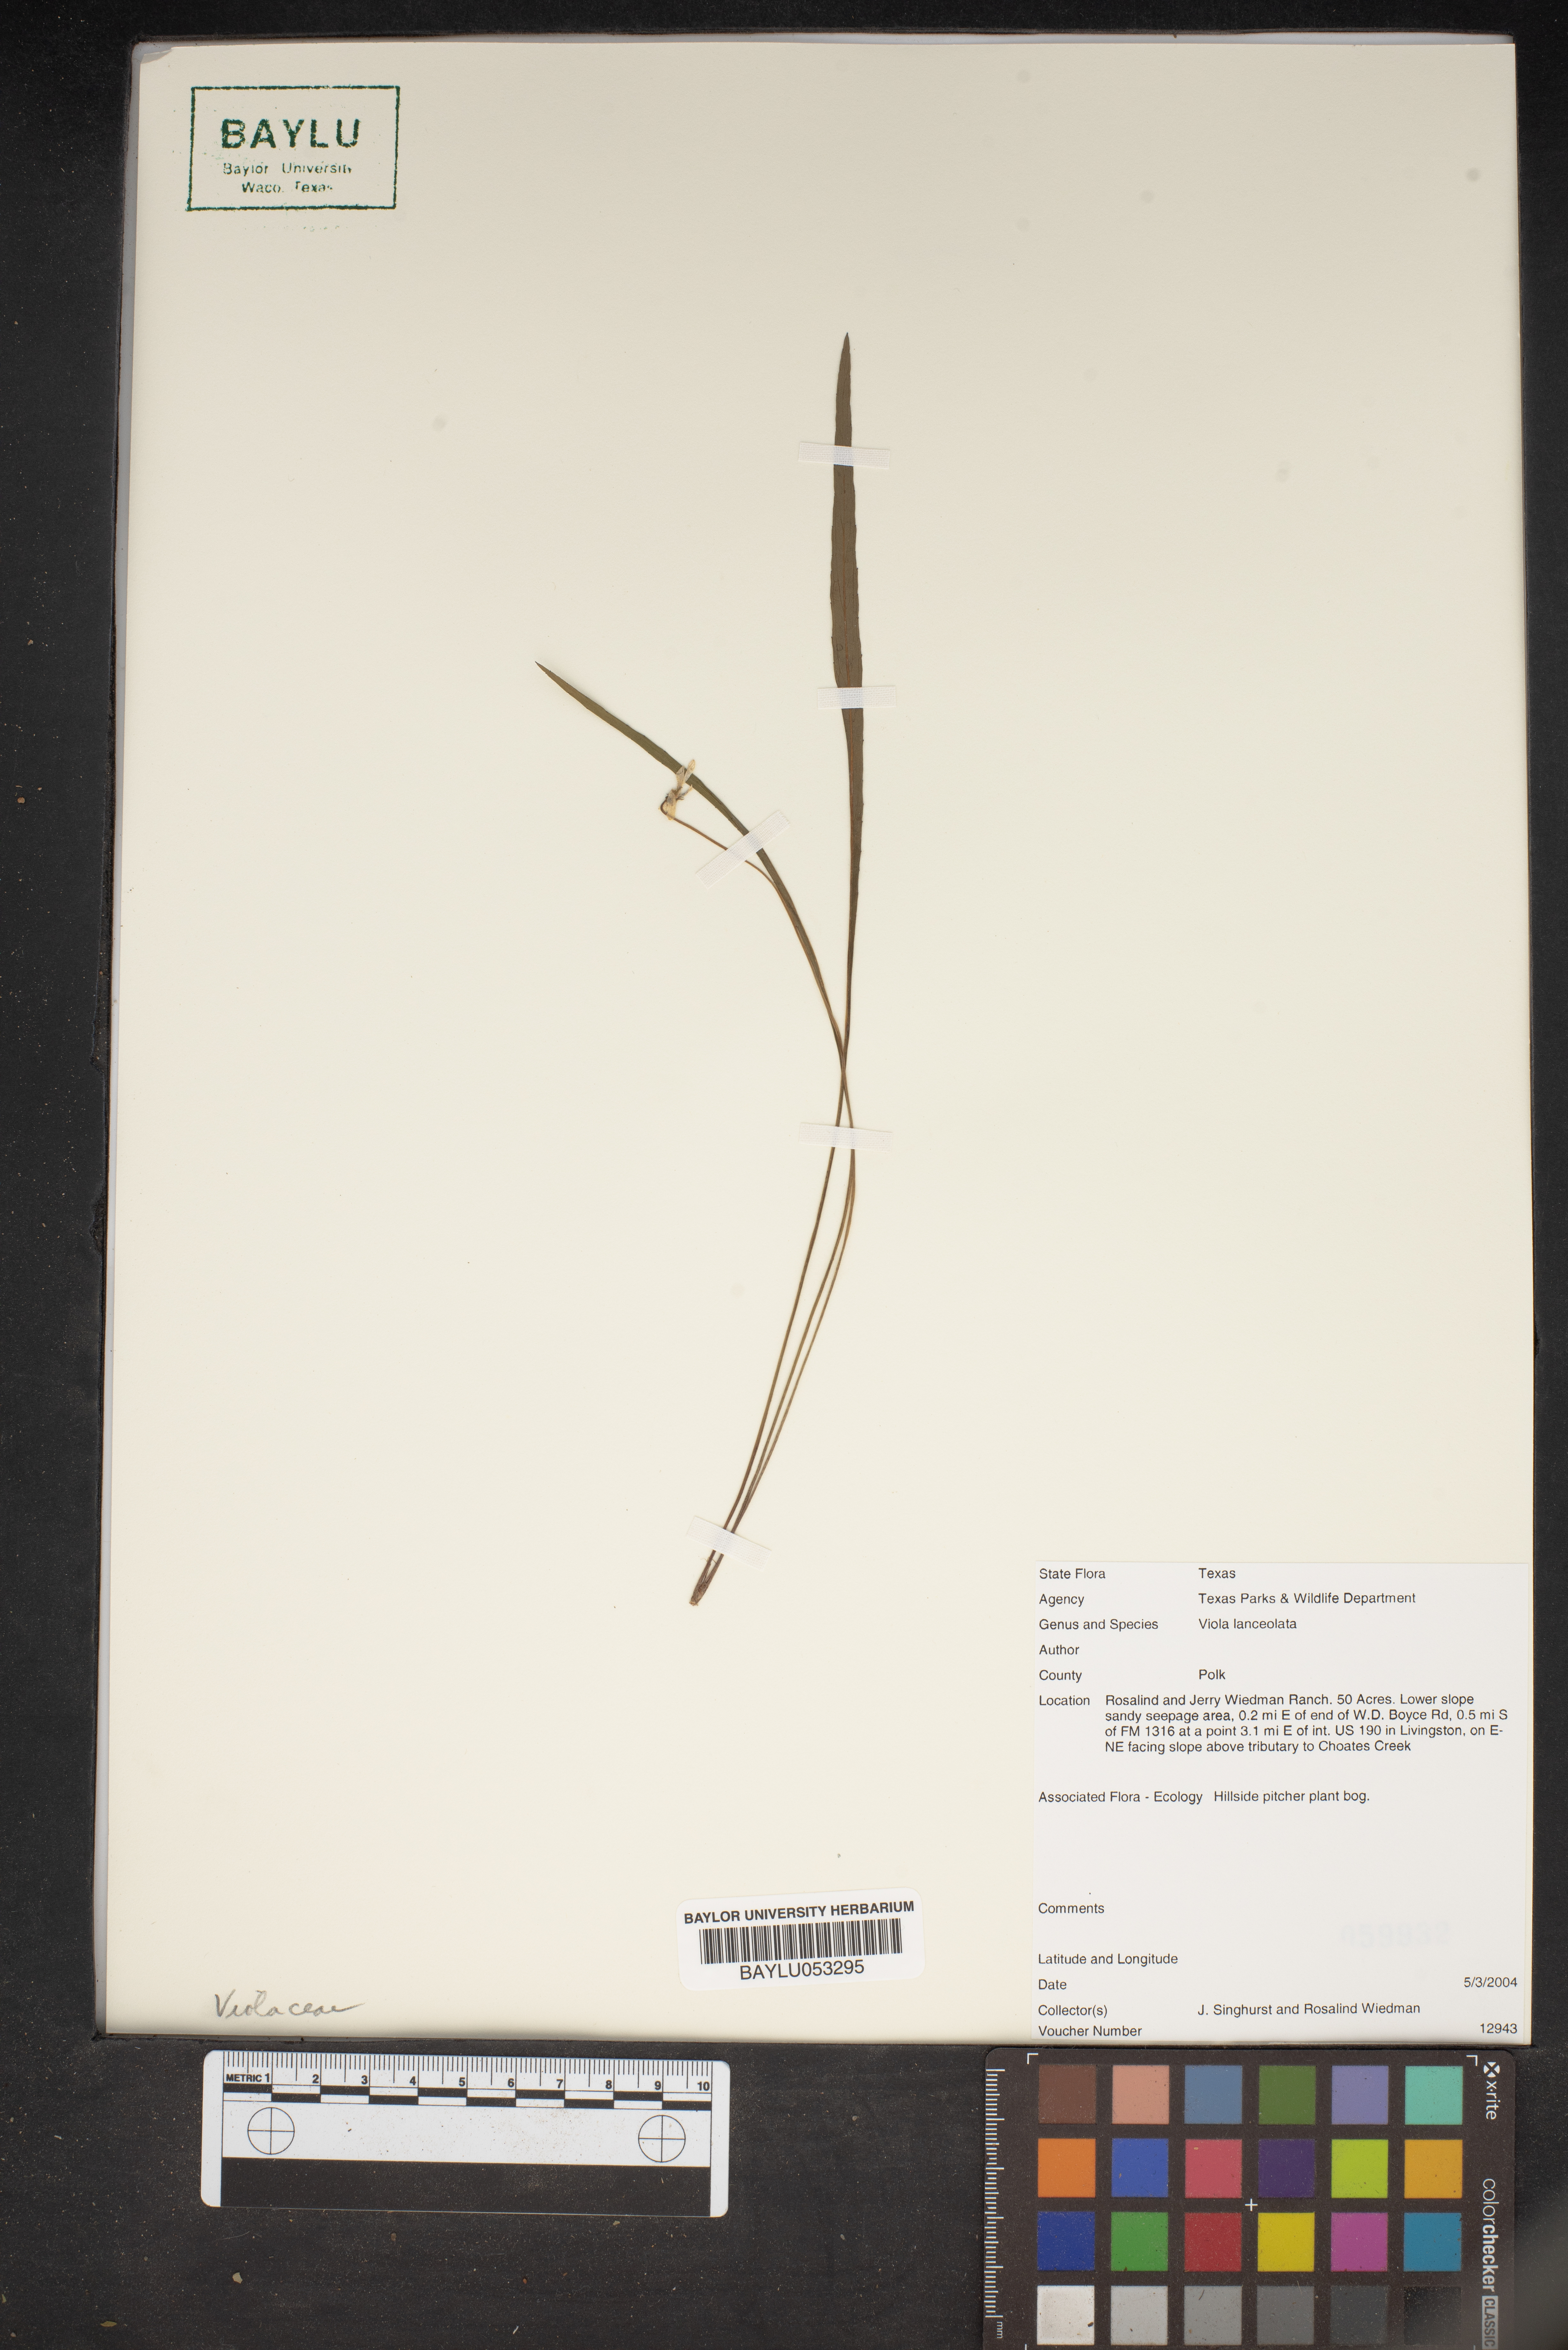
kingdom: Plantae
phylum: Tracheophyta
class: Magnoliopsida
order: Malpighiales
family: Violaceae
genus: Viola
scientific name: Viola lanceolata
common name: Bog white violet
